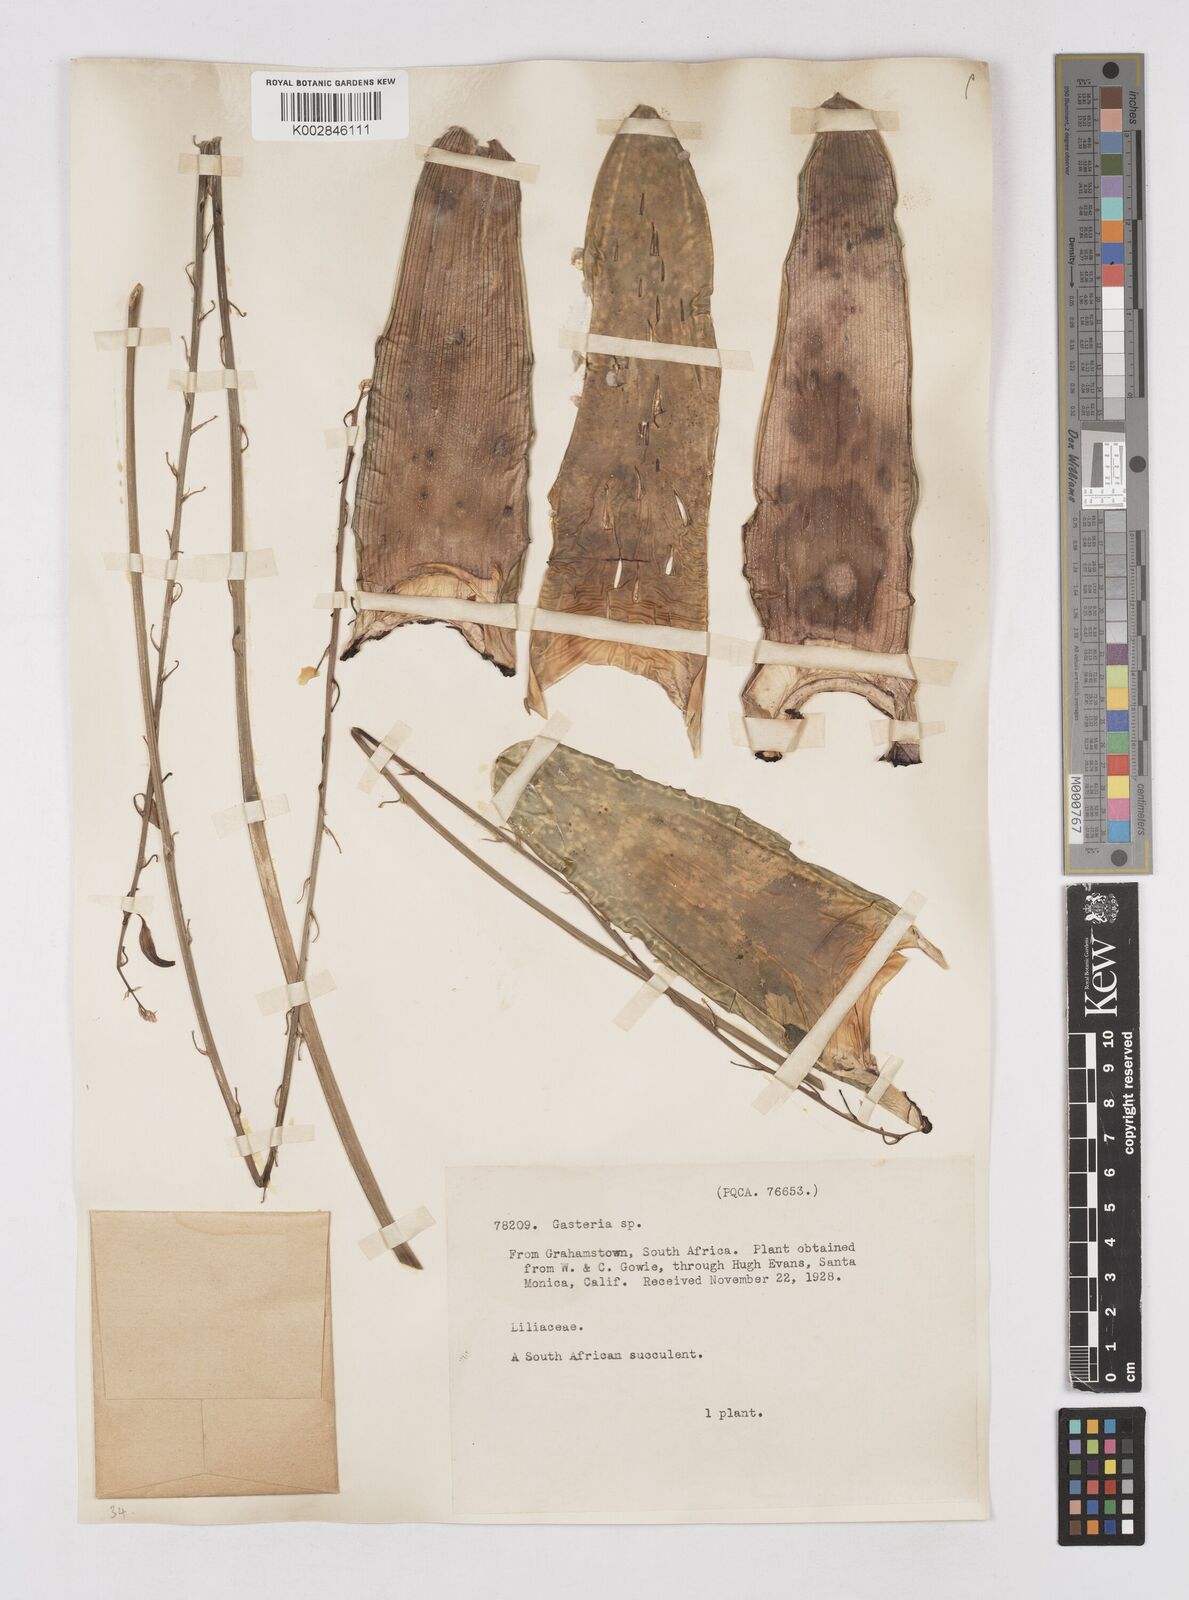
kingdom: Plantae
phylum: Tracheophyta
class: Liliopsida
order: Asparagales
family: Asphodelaceae
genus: Gasteria
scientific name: Gasteria
